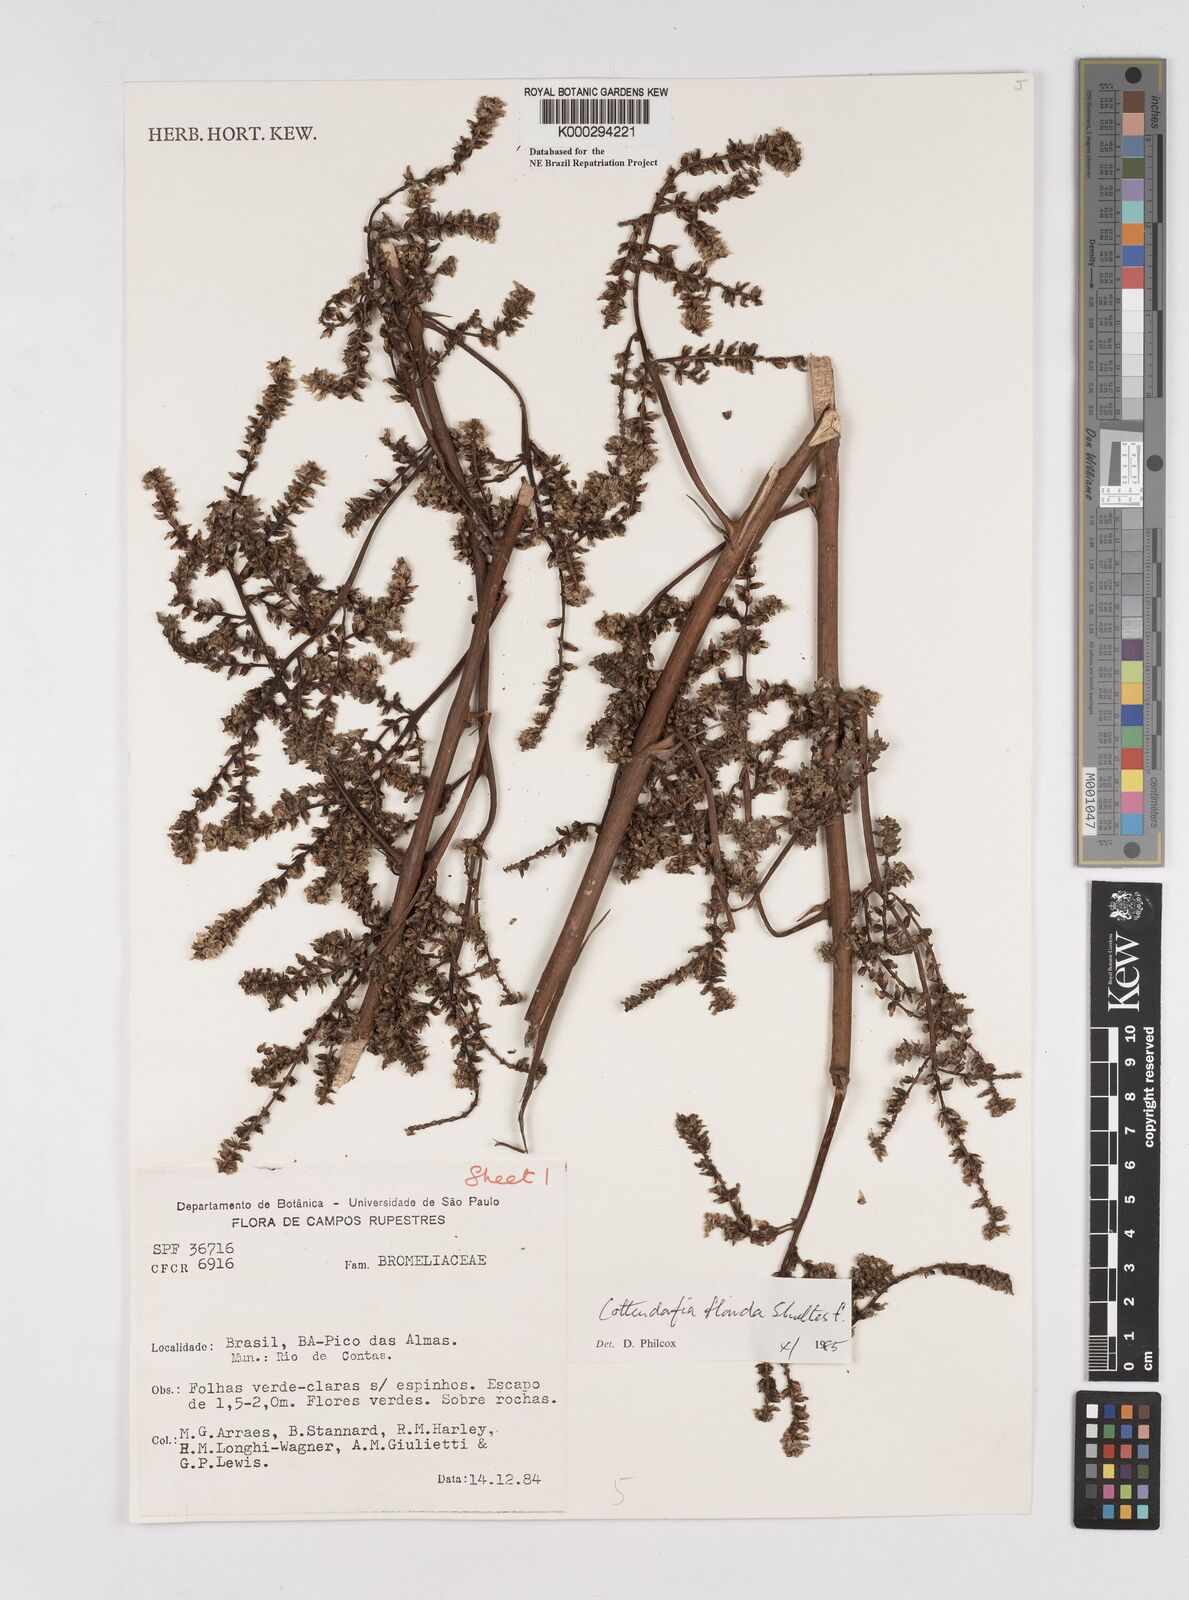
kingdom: Plantae
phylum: Tracheophyta
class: Liliopsida
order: Poales
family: Bromeliaceae
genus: Cottendorfia
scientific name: Cottendorfia florida
